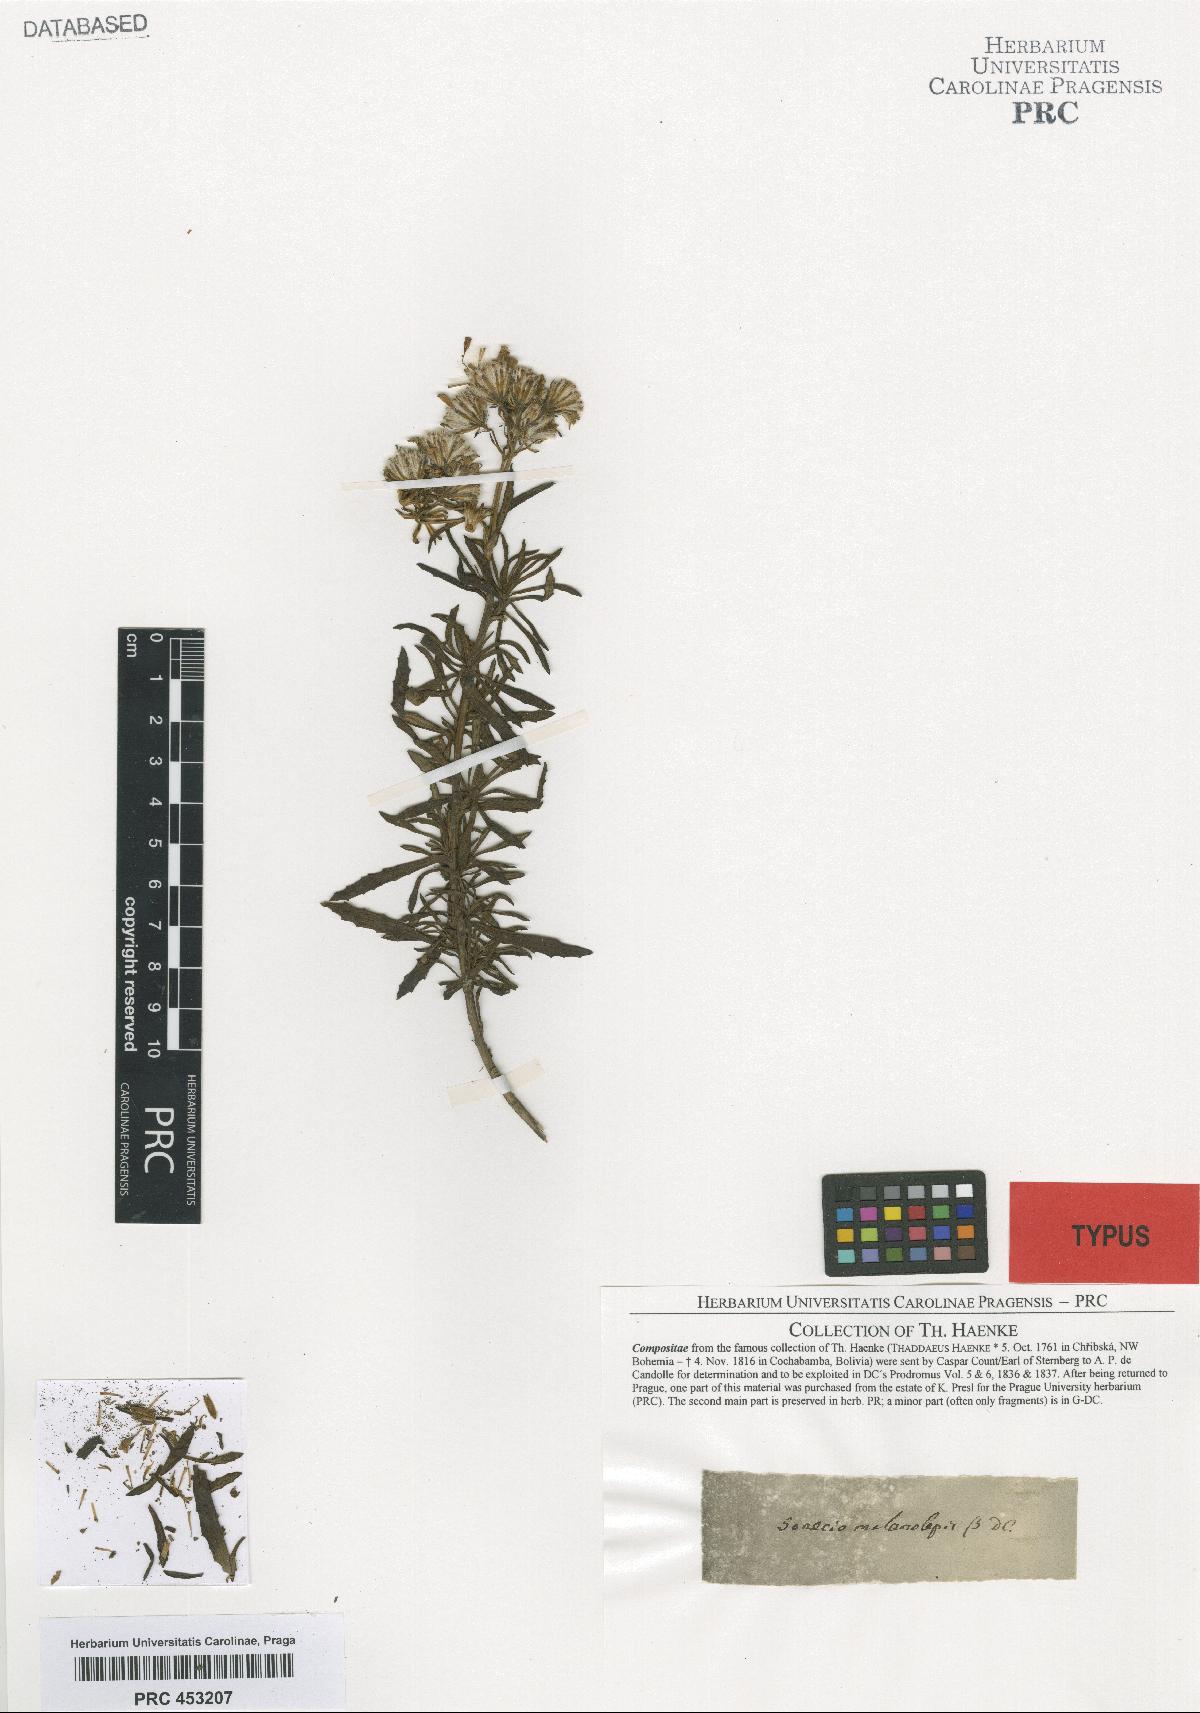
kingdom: Plantae
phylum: Tracheophyta
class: Magnoliopsida
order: Asterales
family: Asteraceae
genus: Senecio
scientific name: Senecio melanolepis
